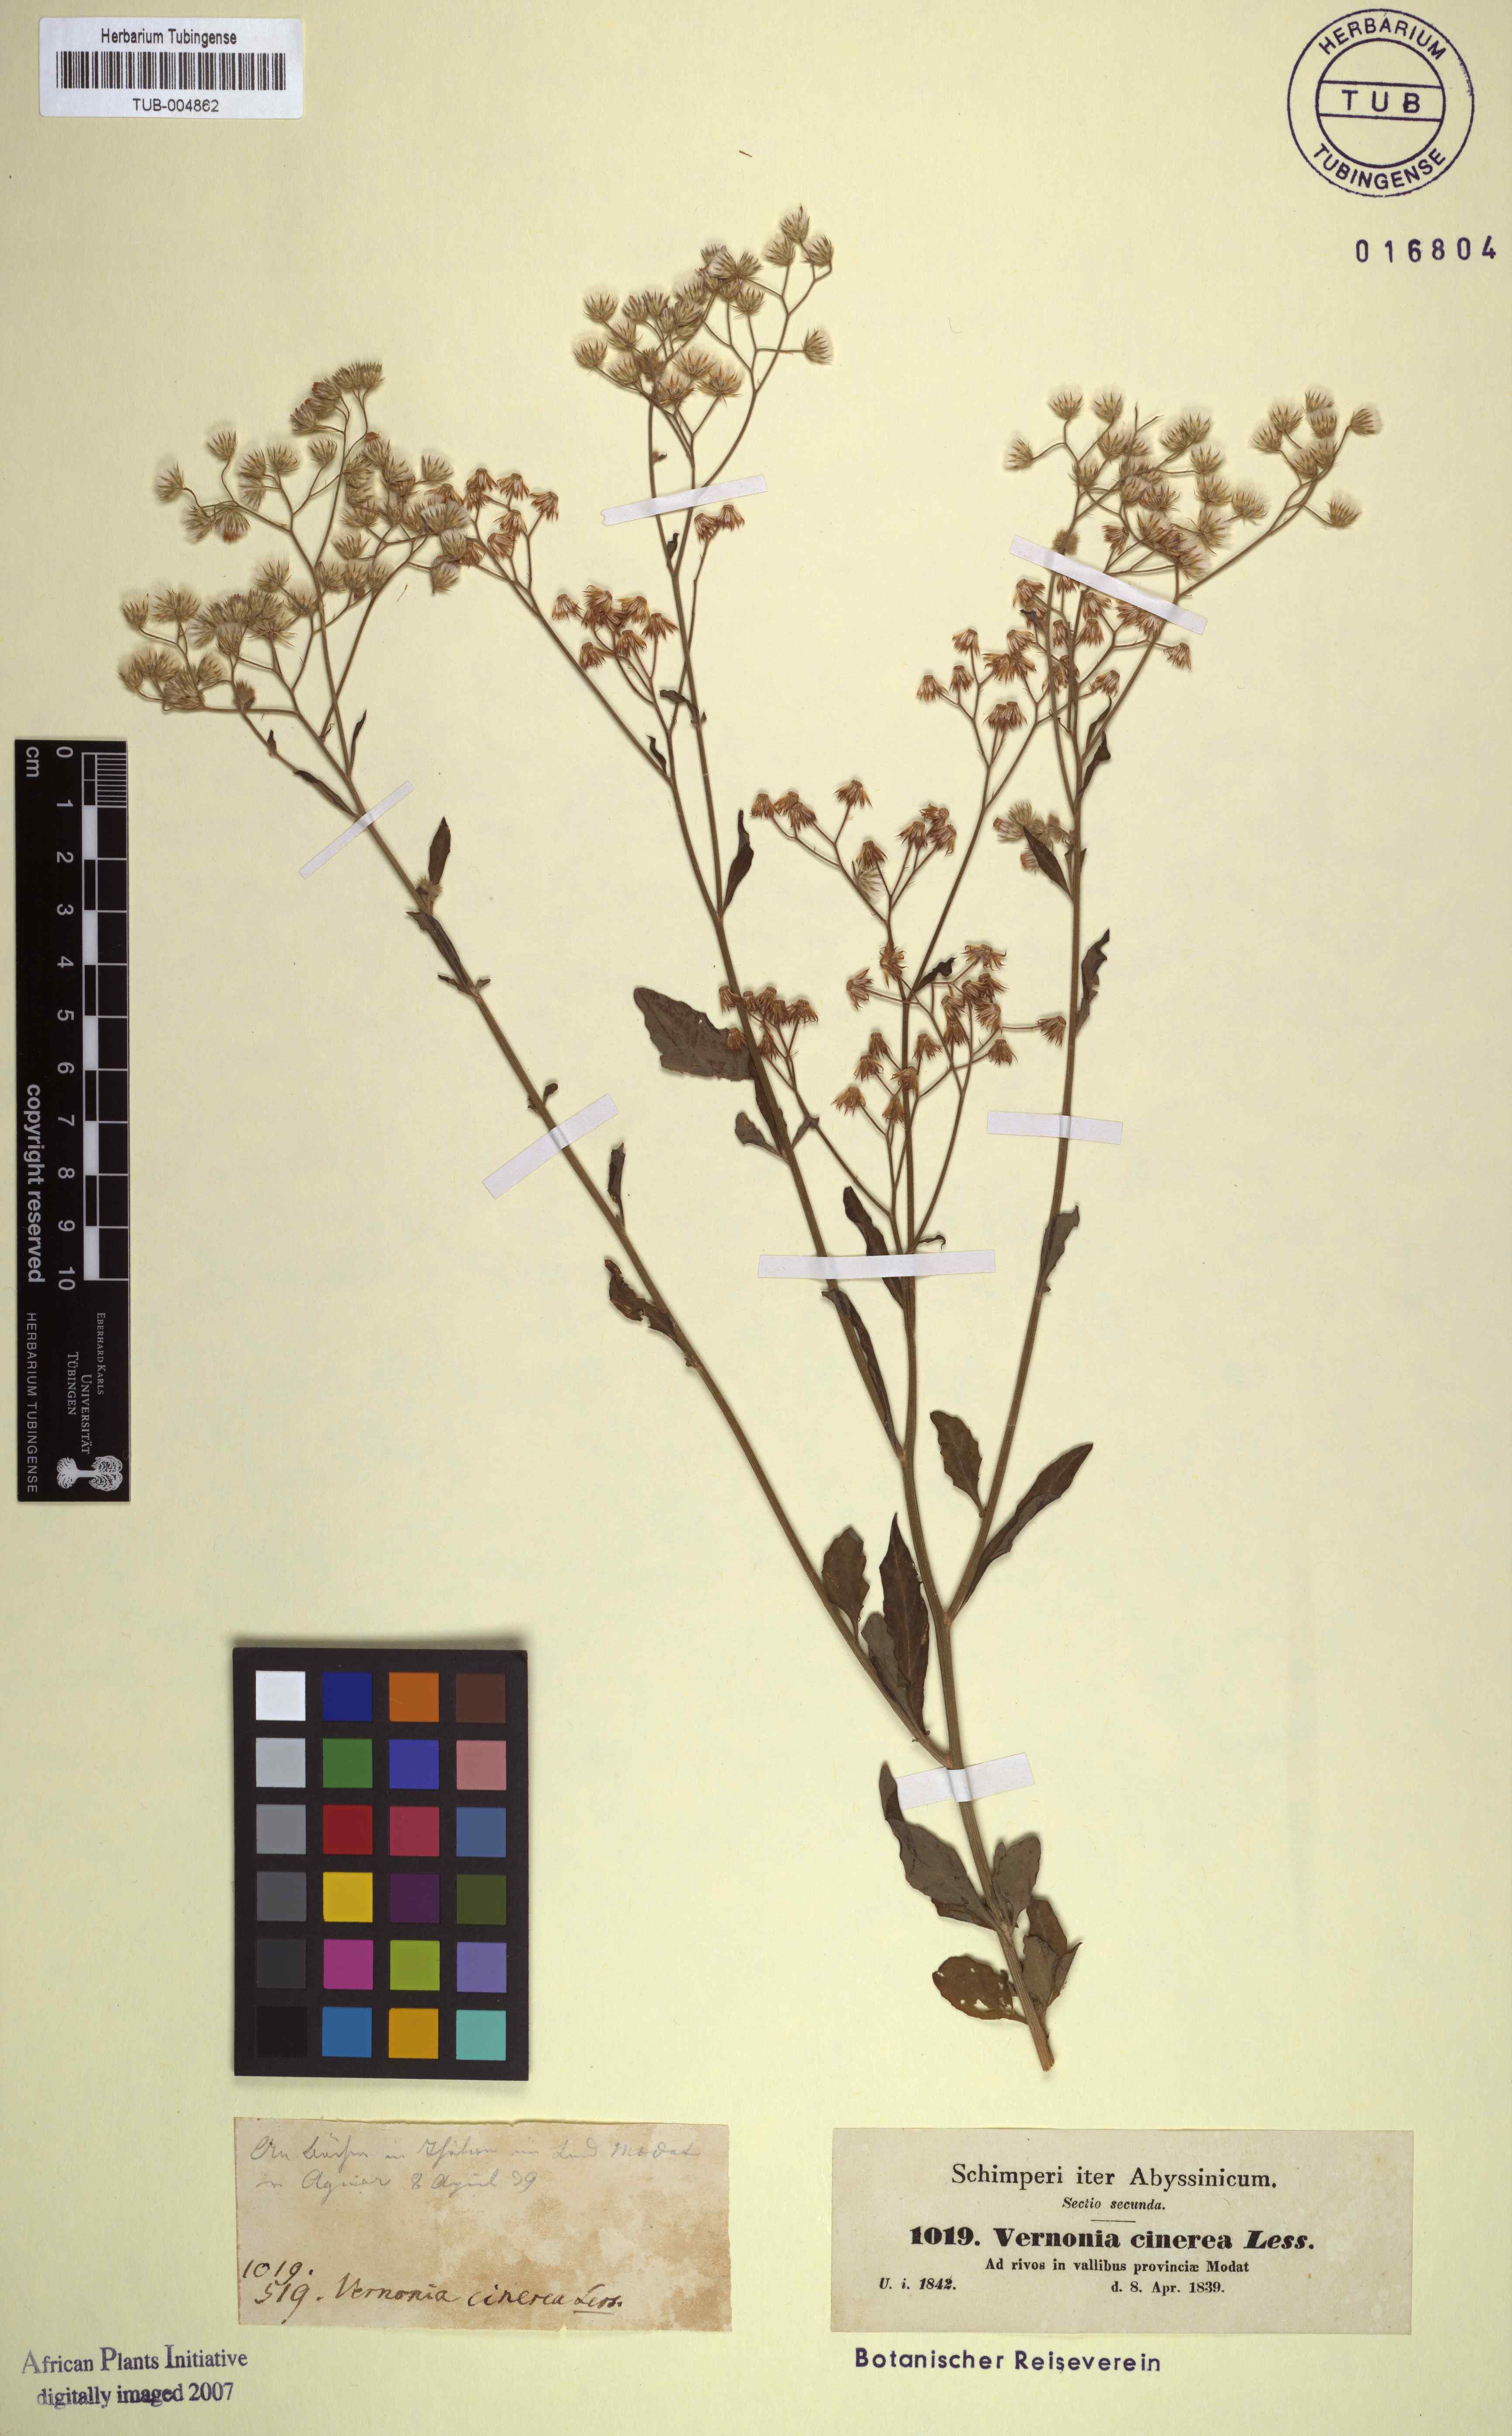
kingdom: Plantae
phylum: Tracheophyta
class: Magnoliopsida
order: Asterales
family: Asteraceae
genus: Cyanthillium
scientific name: Cyanthillium cinereum
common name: Little ironweed
